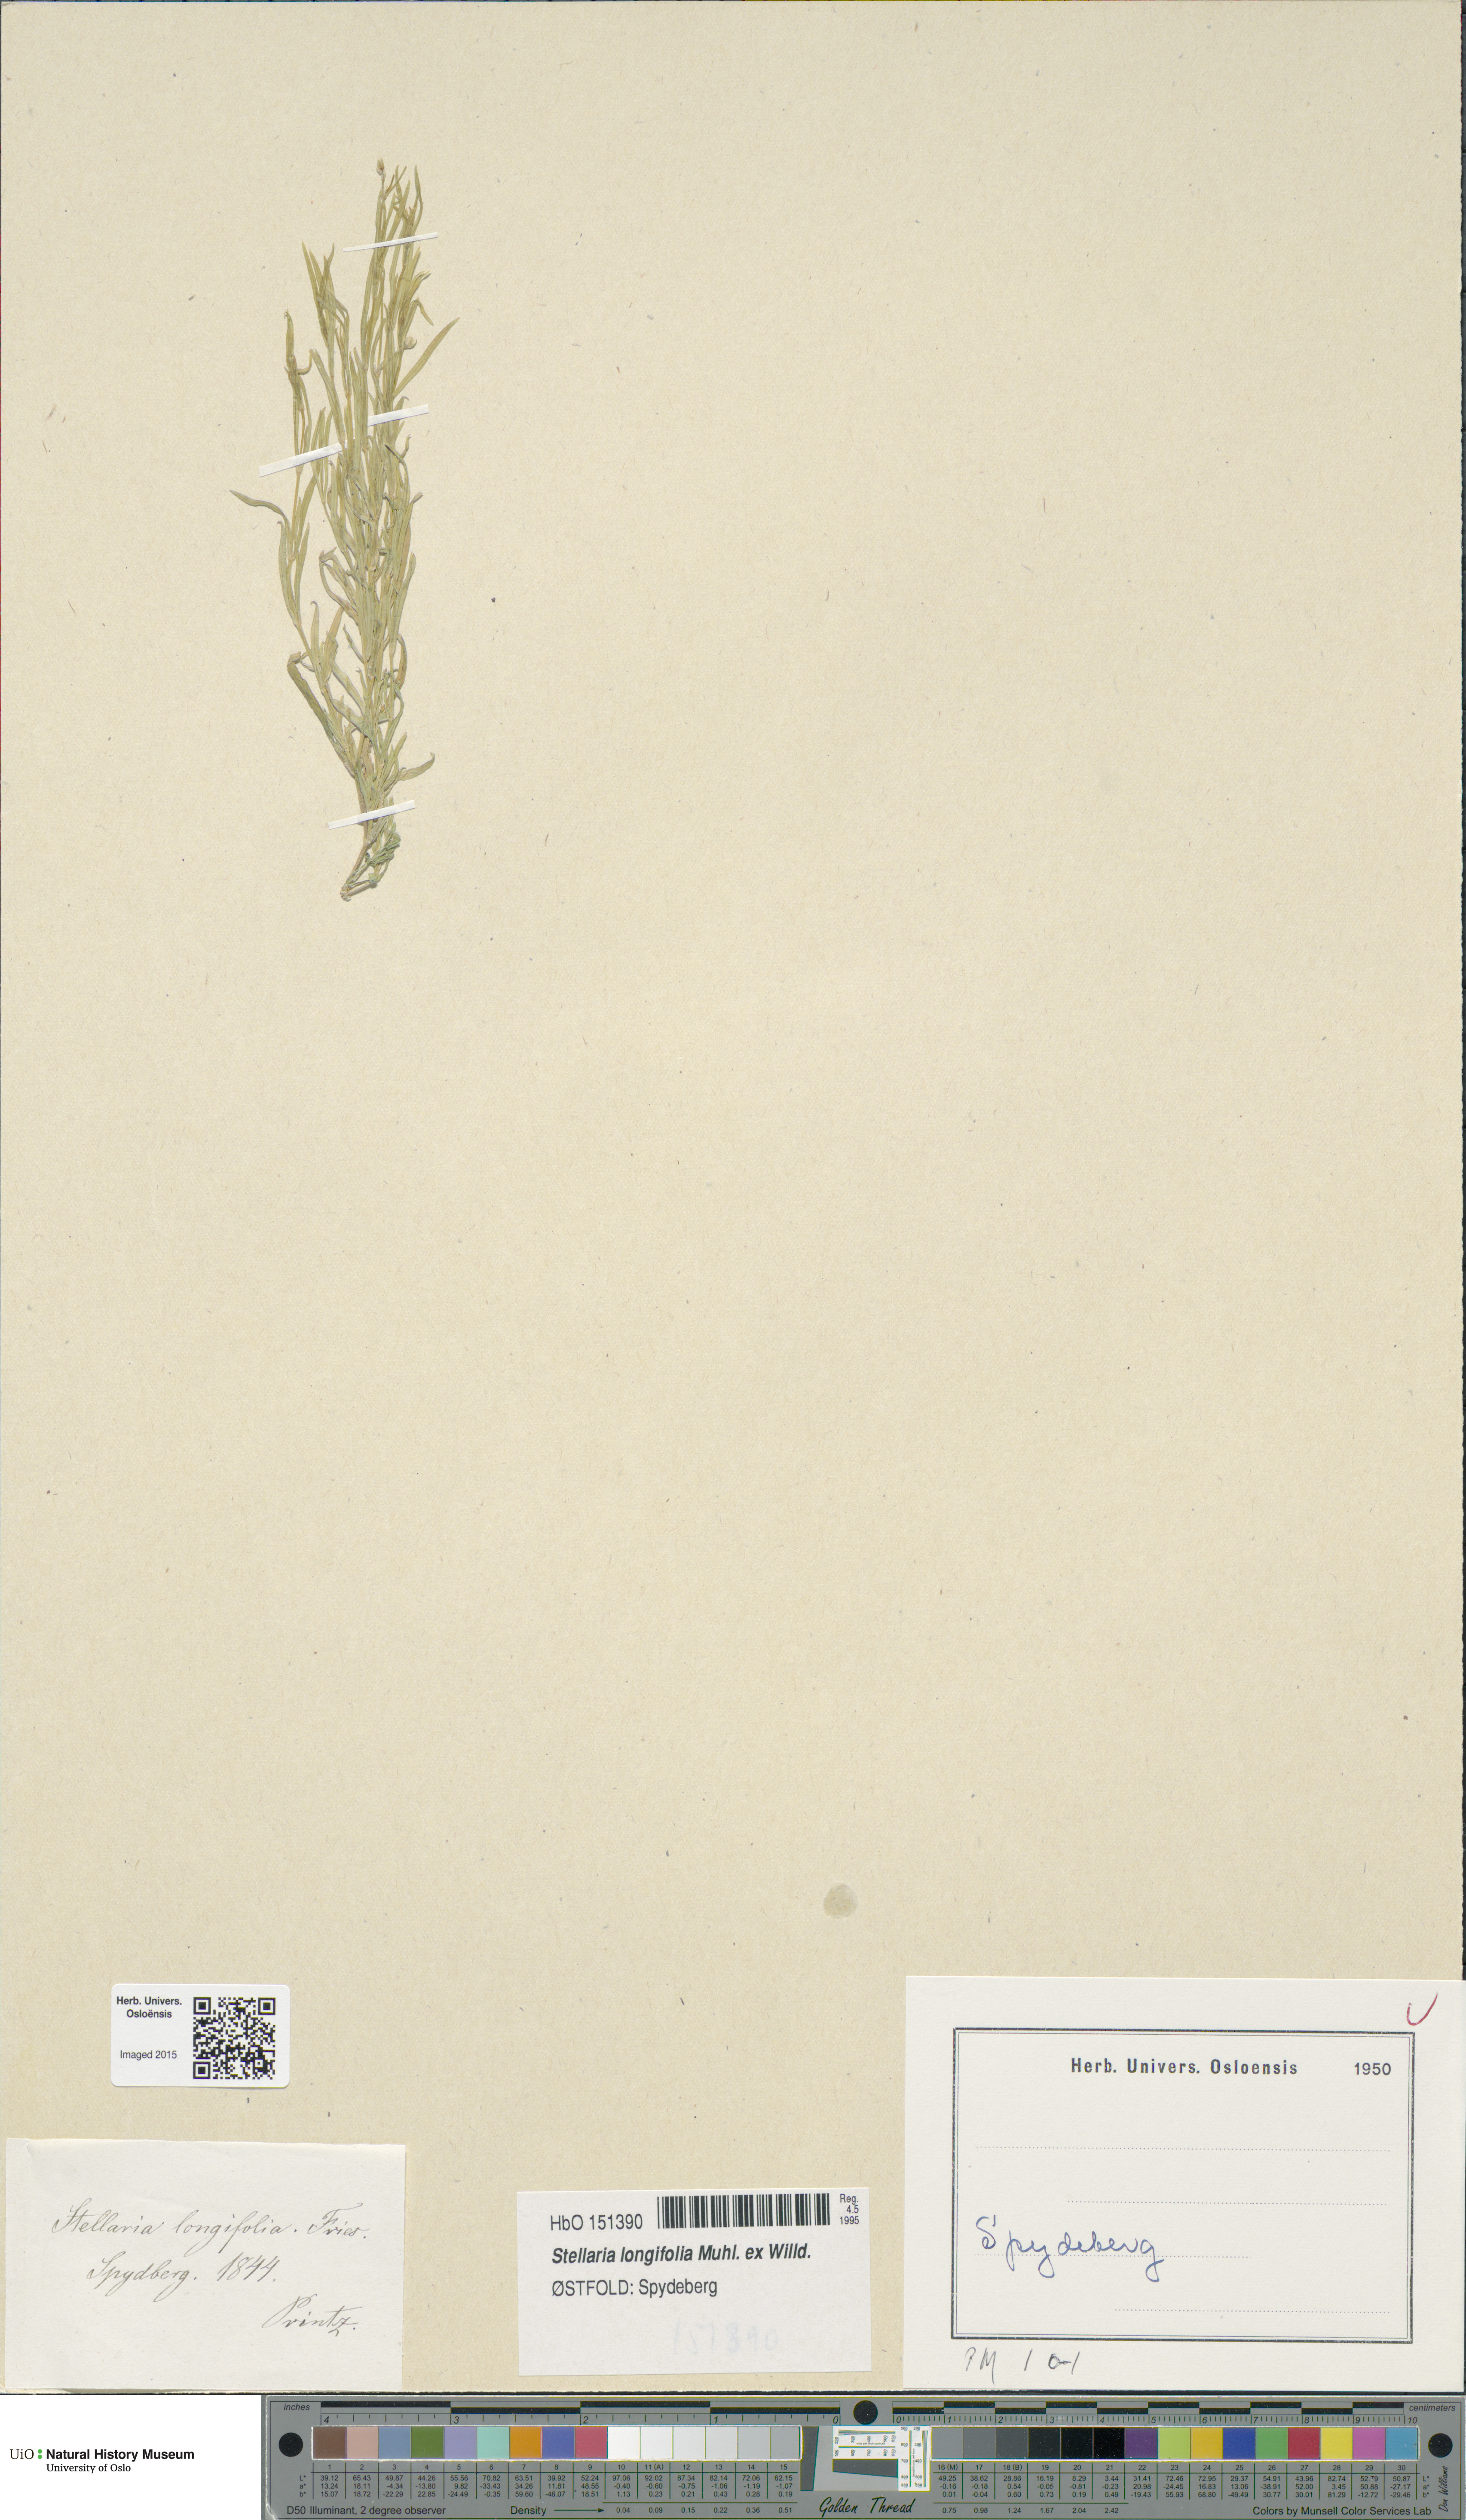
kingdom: Plantae
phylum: Tracheophyta
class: Magnoliopsida
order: Caryophyllales
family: Caryophyllaceae
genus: Stellaria
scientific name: Stellaria longifolia
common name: Long-leaved chickweed
